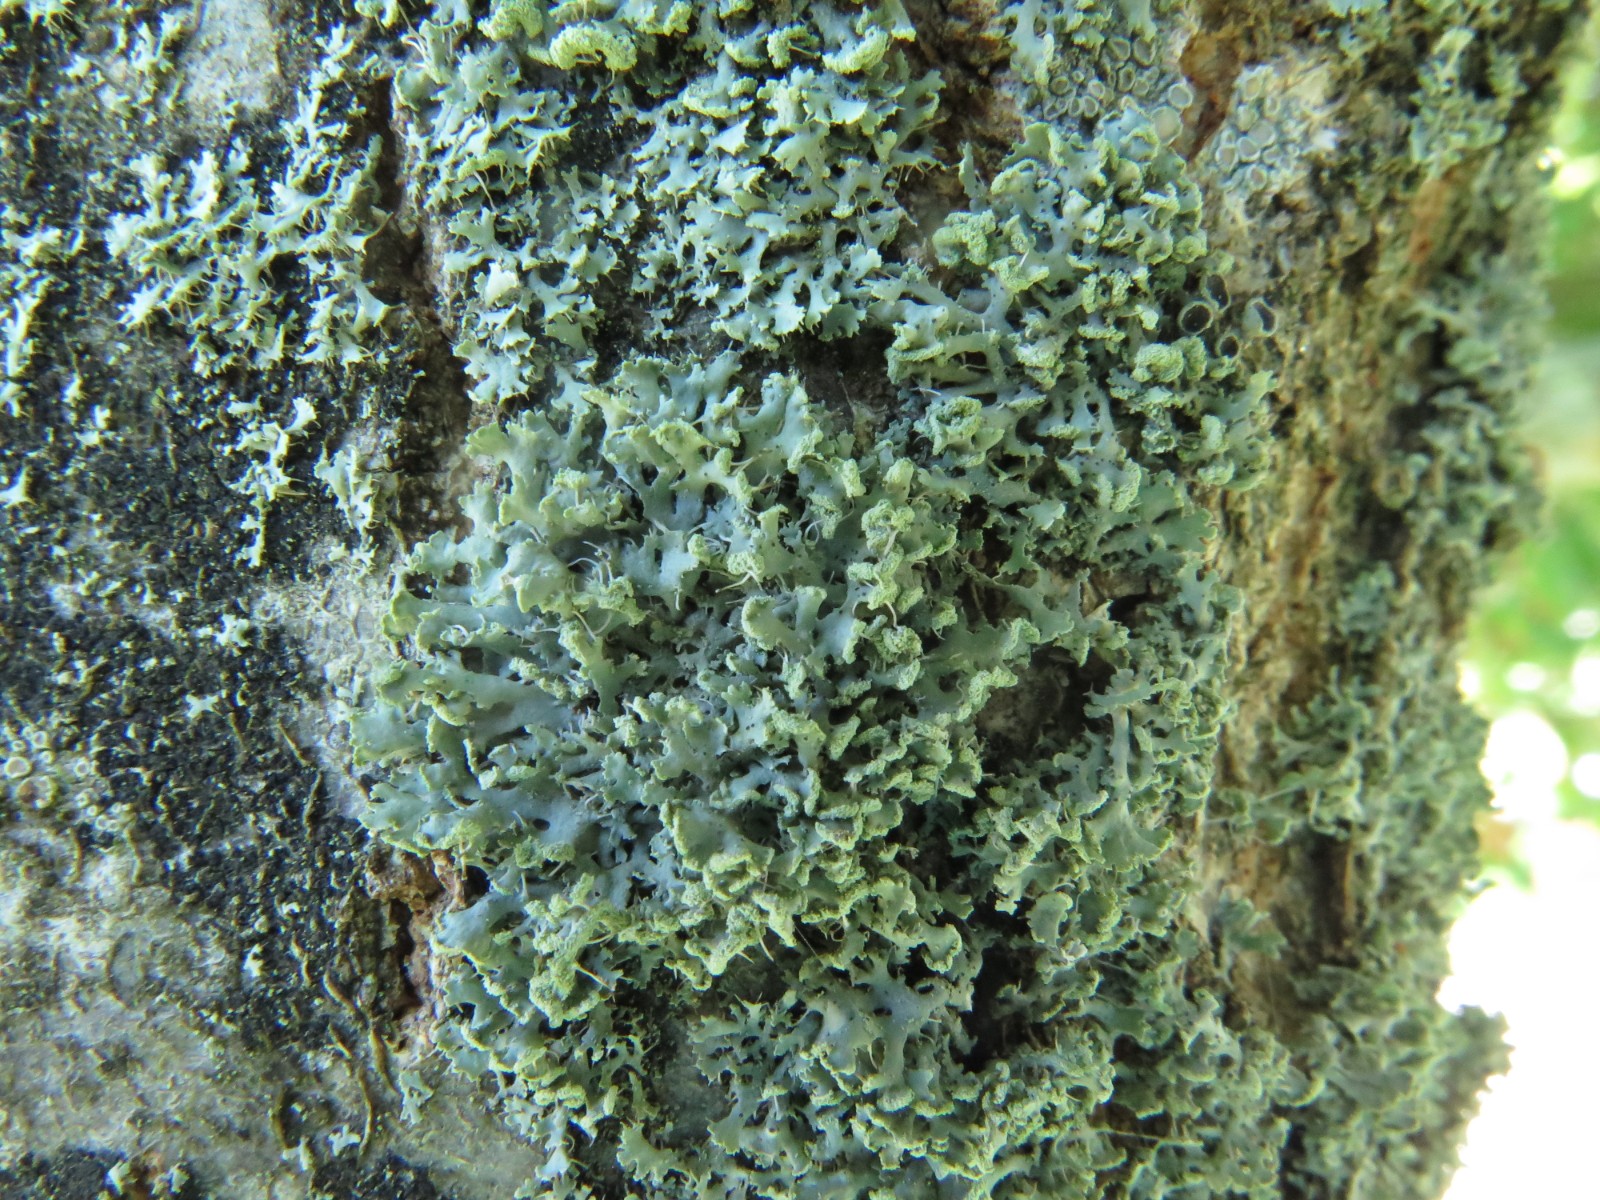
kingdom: Fungi
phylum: Ascomycota
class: Lecanoromycetes
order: Caliciales
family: Physciaceae
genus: Physcia
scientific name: Physcia adscendens
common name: hætte-rosetlav
